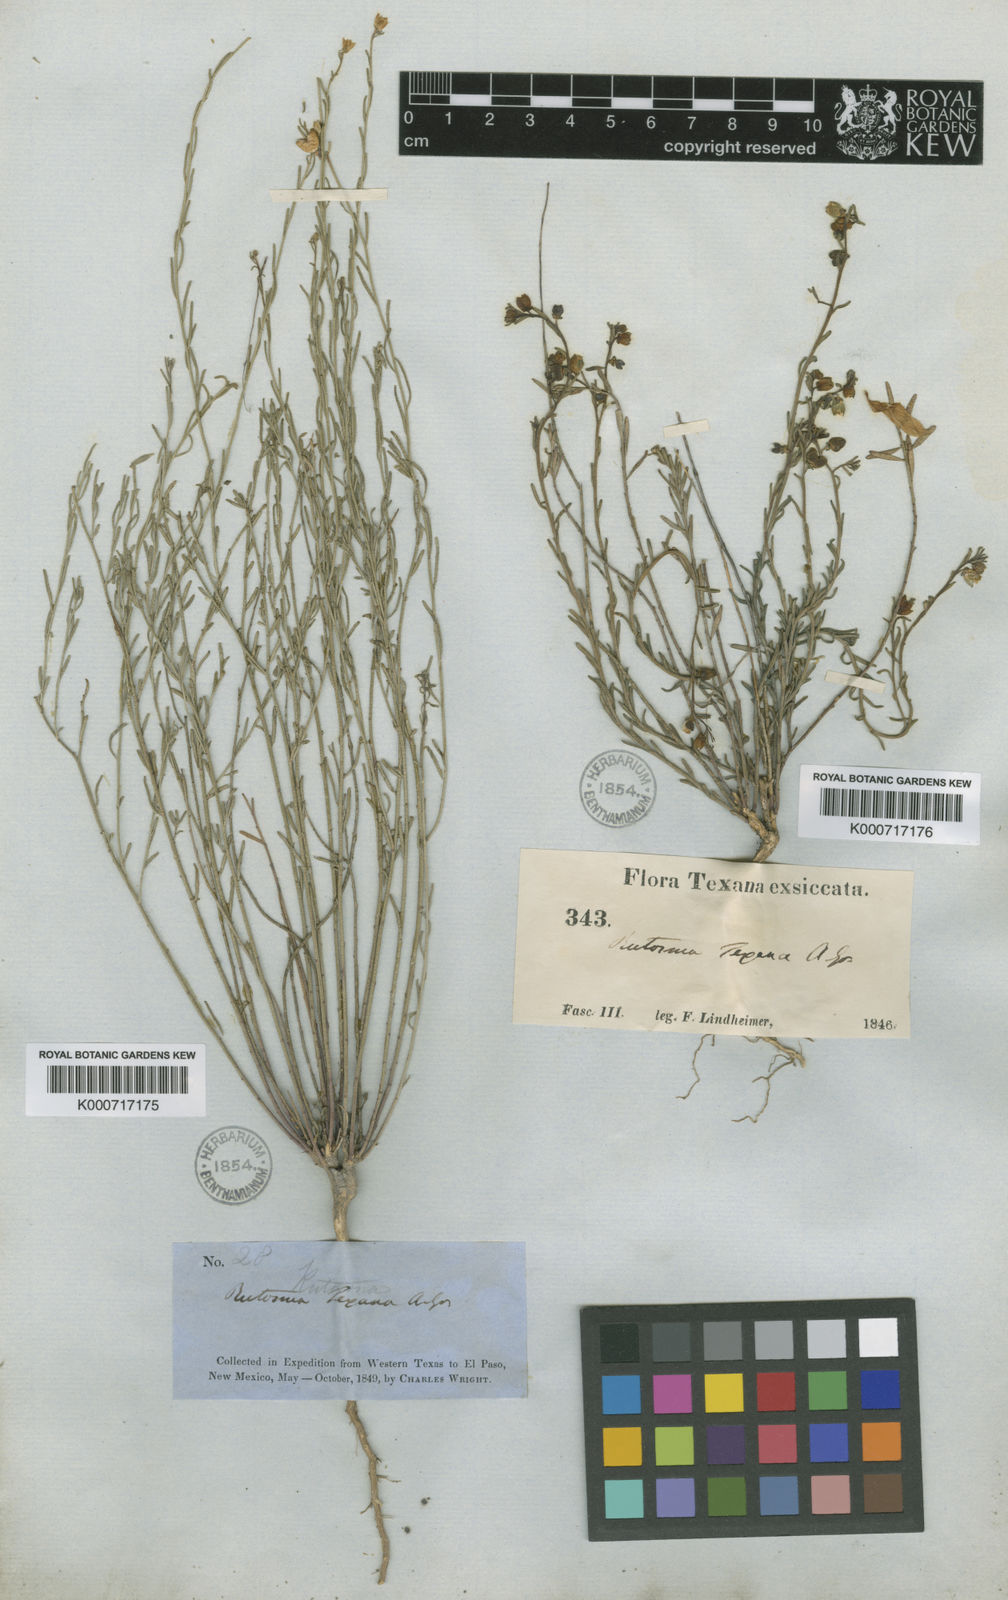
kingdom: Plantae
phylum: Tracheophyta
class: Magnoliopsida
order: Sapindales
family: Rutaceae
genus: Thamnosma
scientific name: Thamnosma texana
